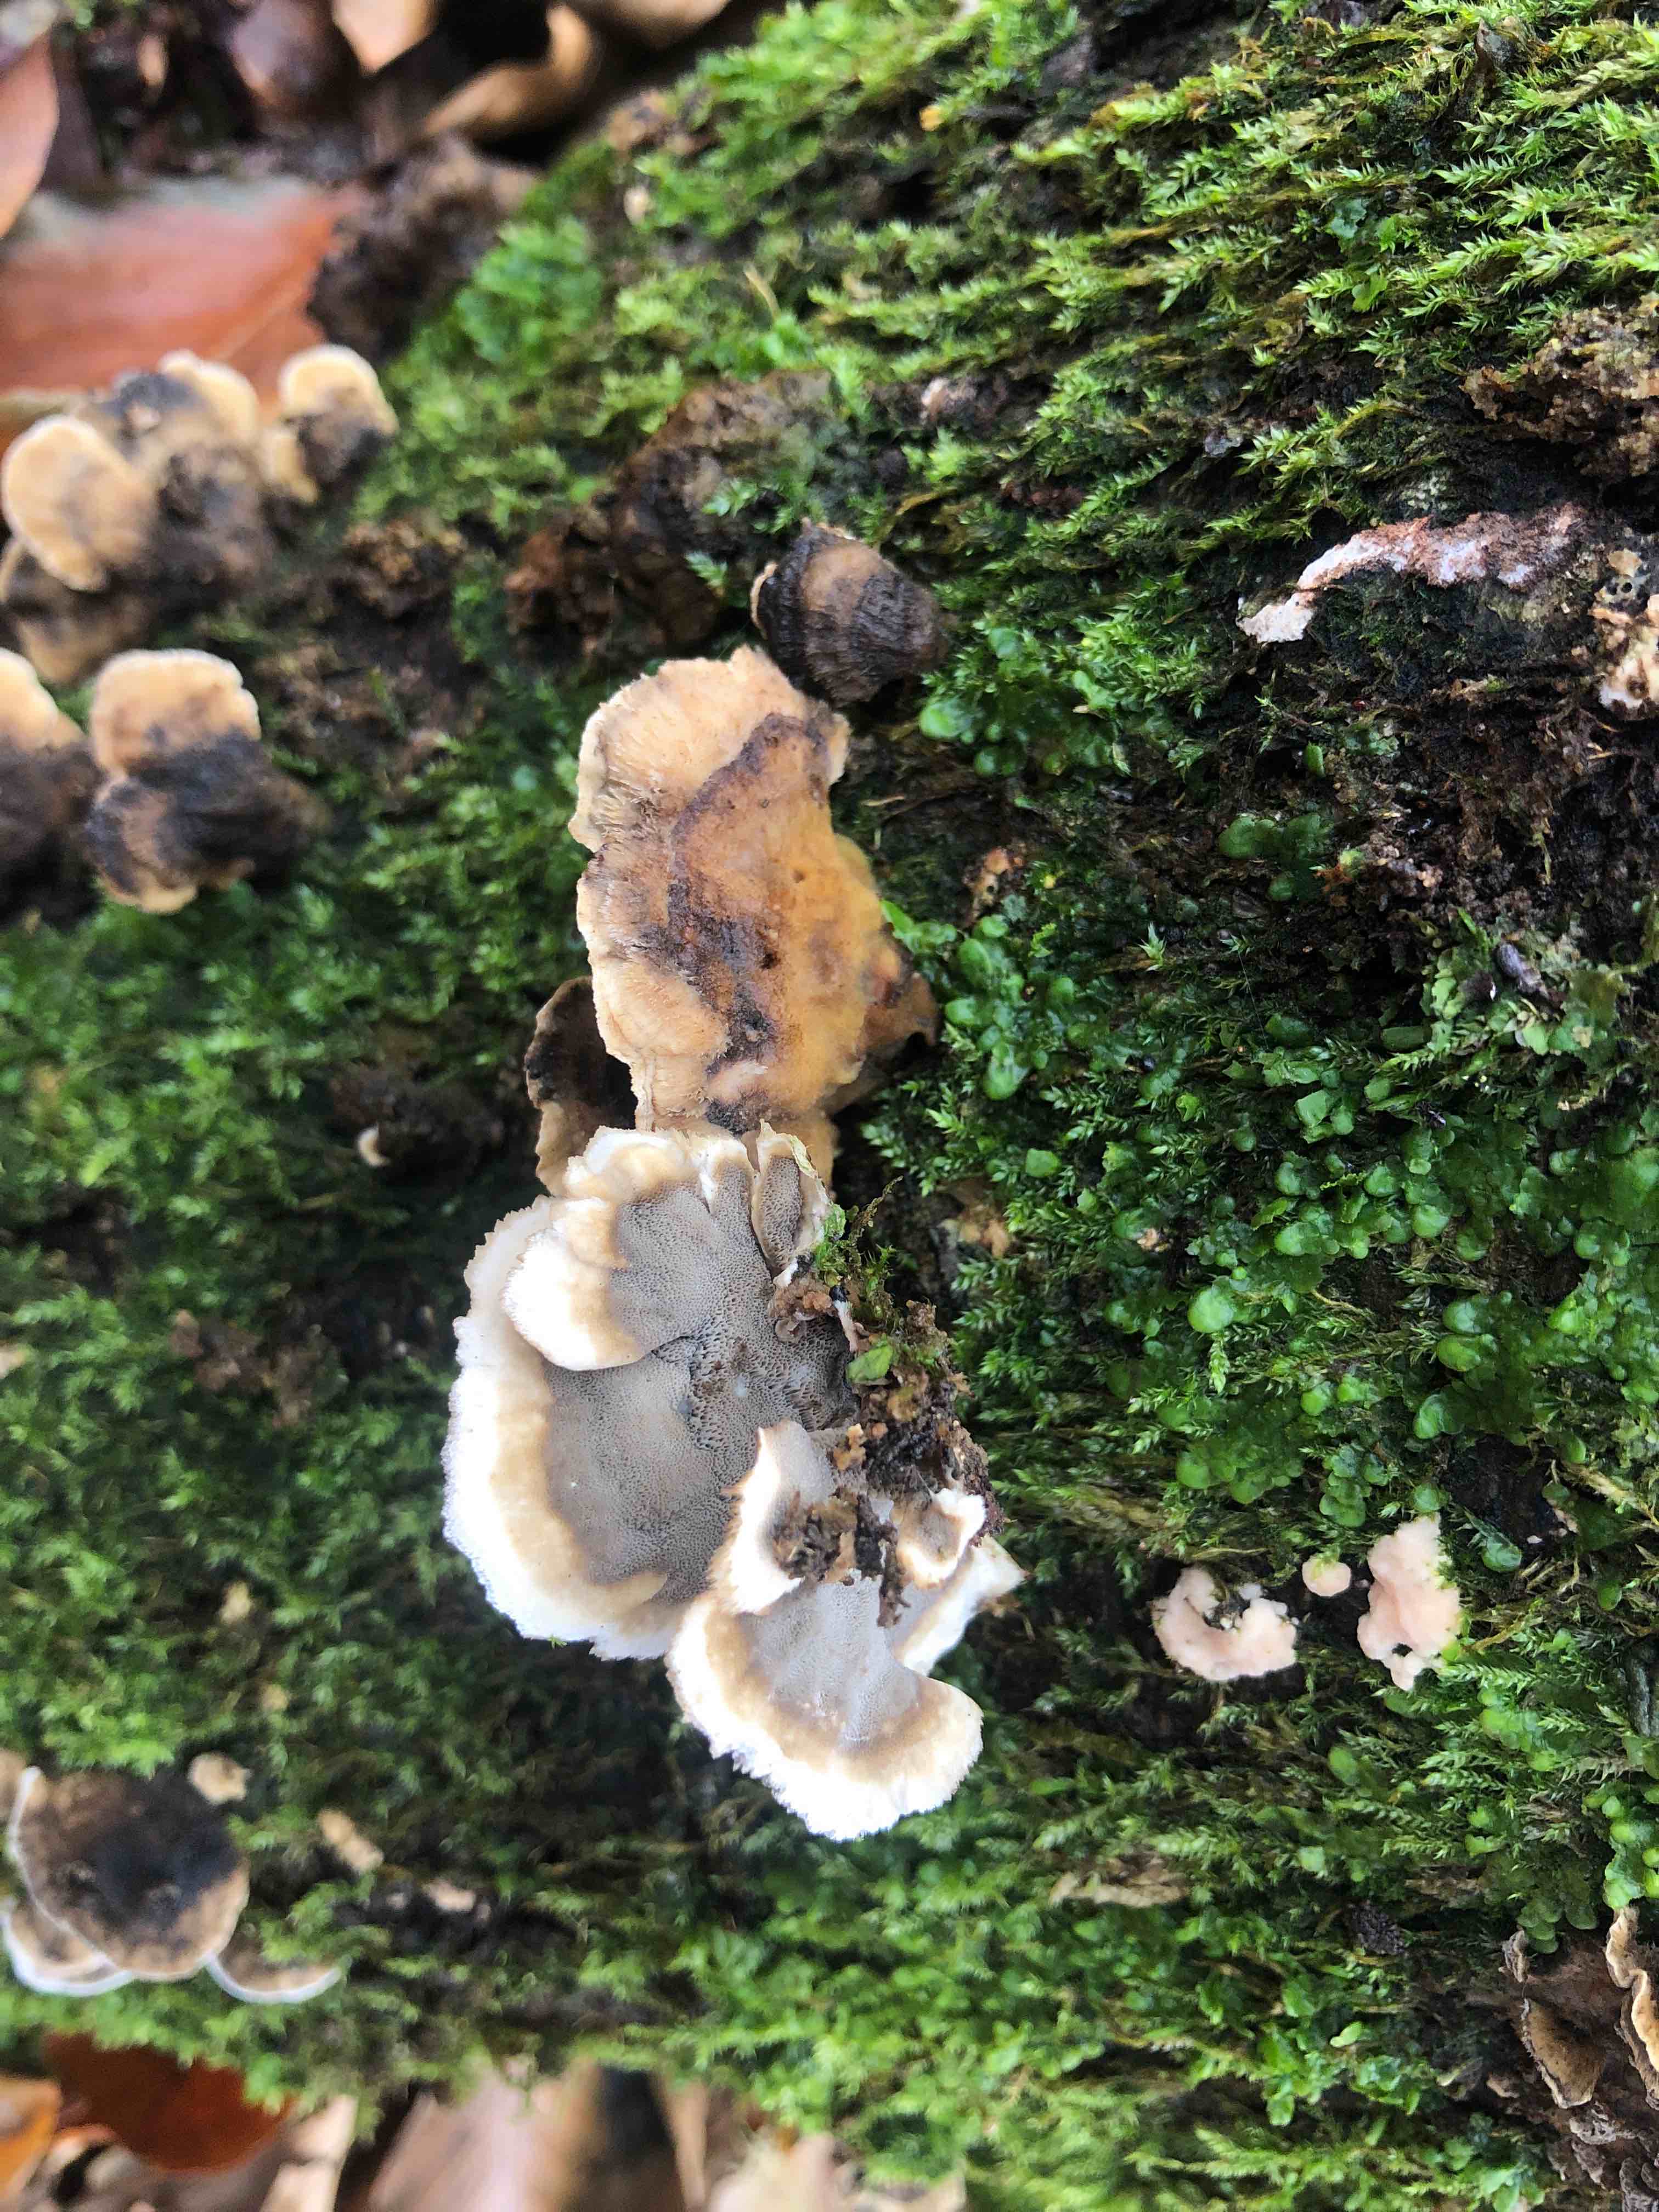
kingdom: Fungi
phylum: Basidiomycota
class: Agaricomycetes
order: Polyporales
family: Phanerochaetaceae
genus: Bjerkandera
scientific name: Bjerkandera adusta
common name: sveden sodporesvamp
